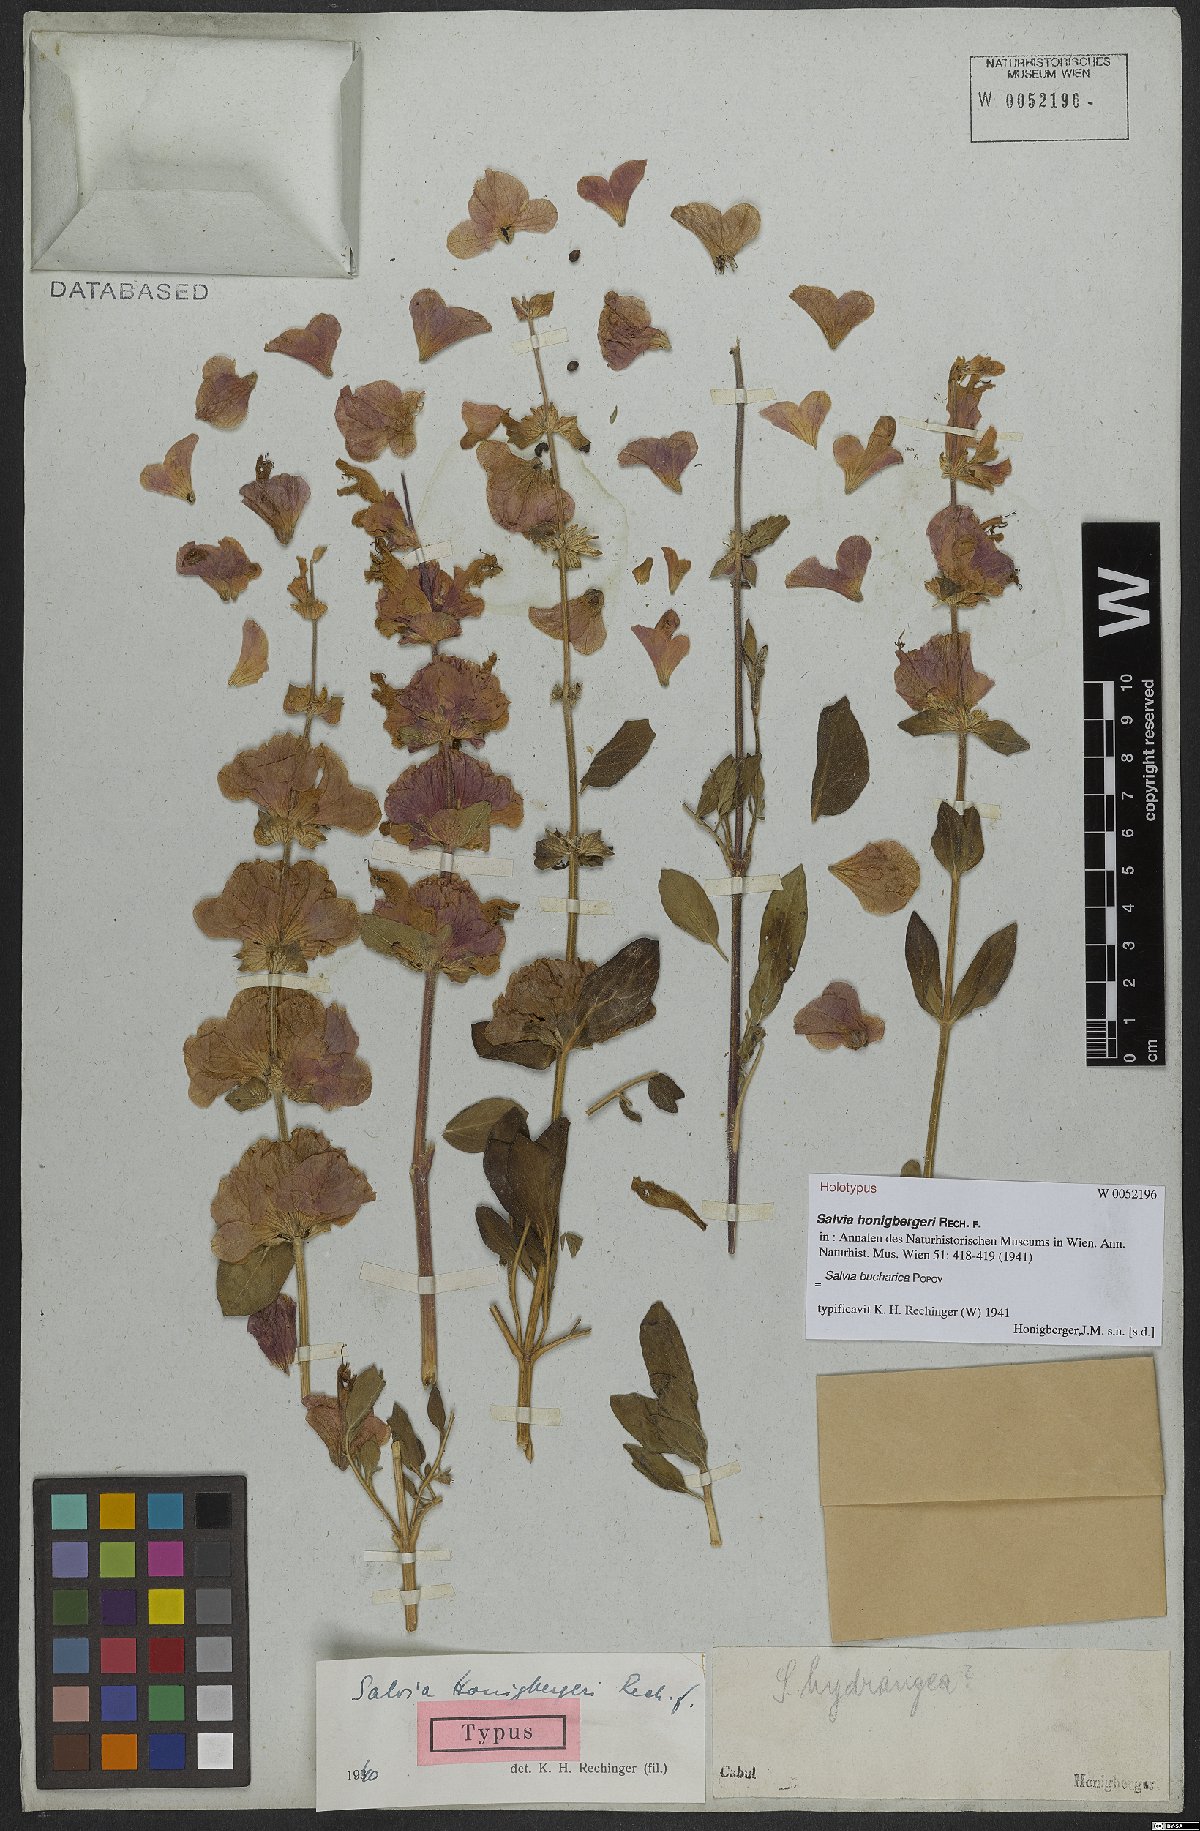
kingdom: Plantae
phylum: Tracheophyta
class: Magnoliopsida
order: Lamiales
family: Lamiaceae
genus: Salvia
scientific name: Salvia bucharica
